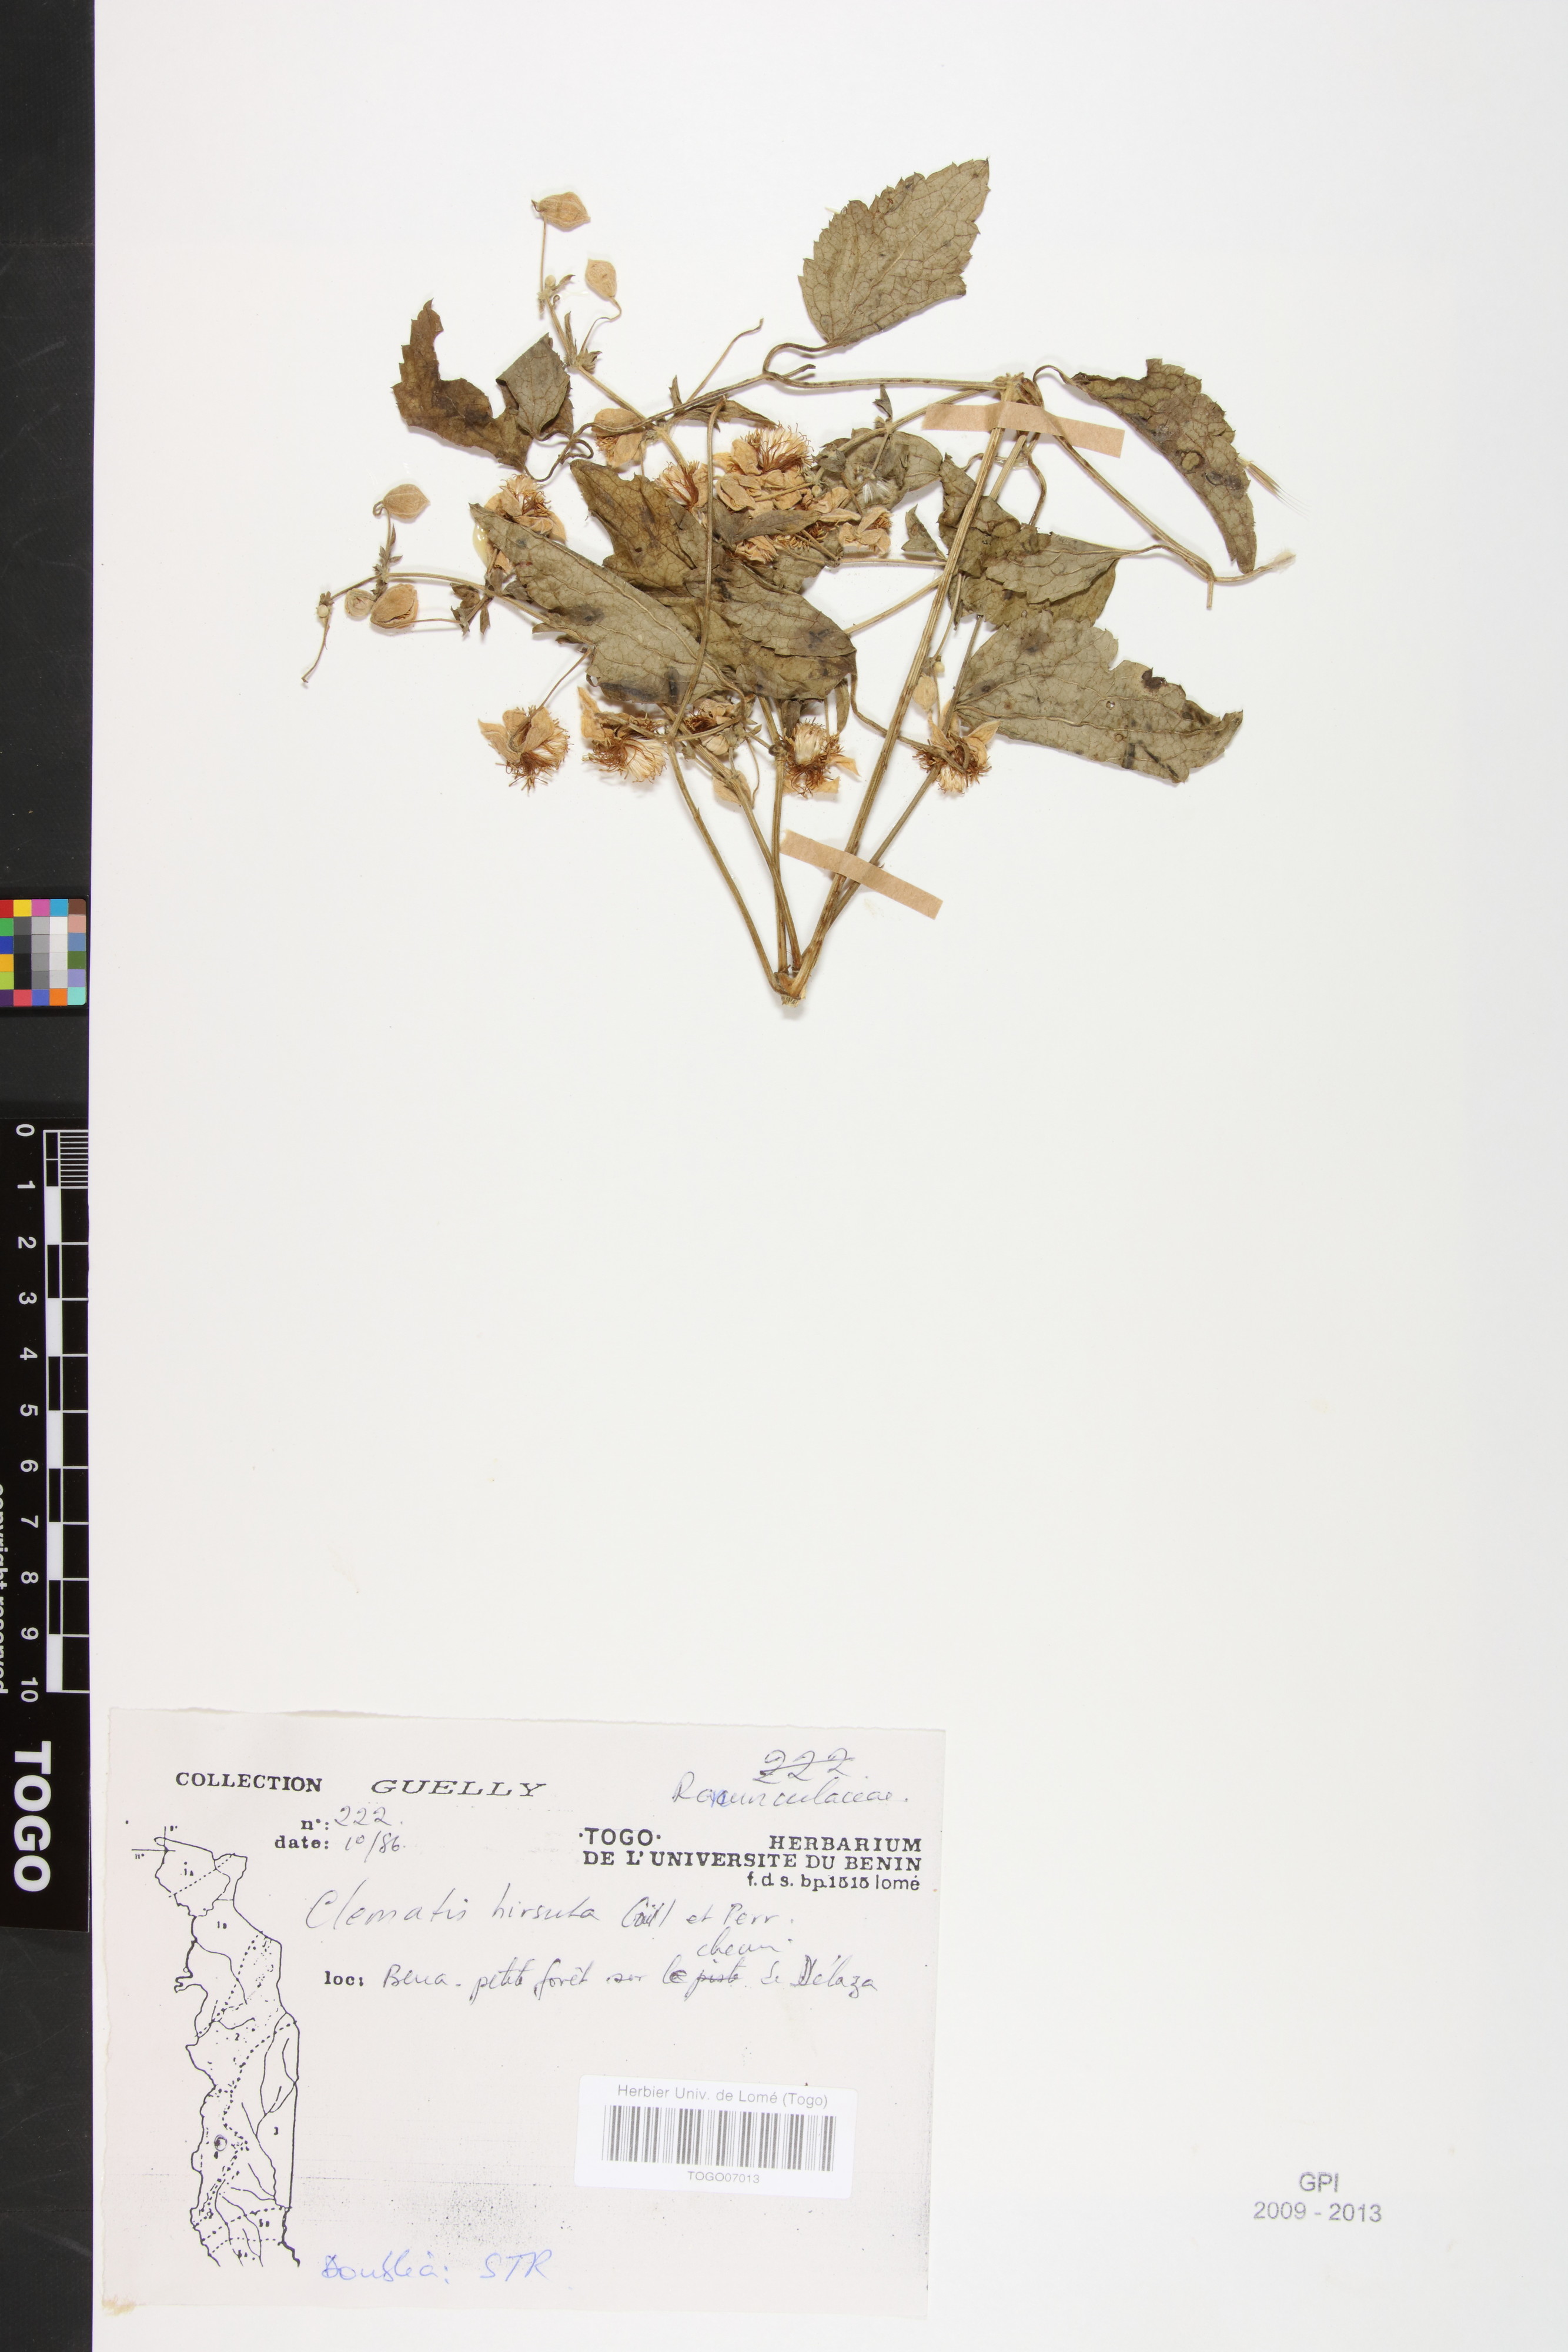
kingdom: Plantae
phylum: Tracheophyta
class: Magnoliopsida
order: Ranunculales
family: Ranunculaceae
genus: Clematis
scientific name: Clematis hirsuta
